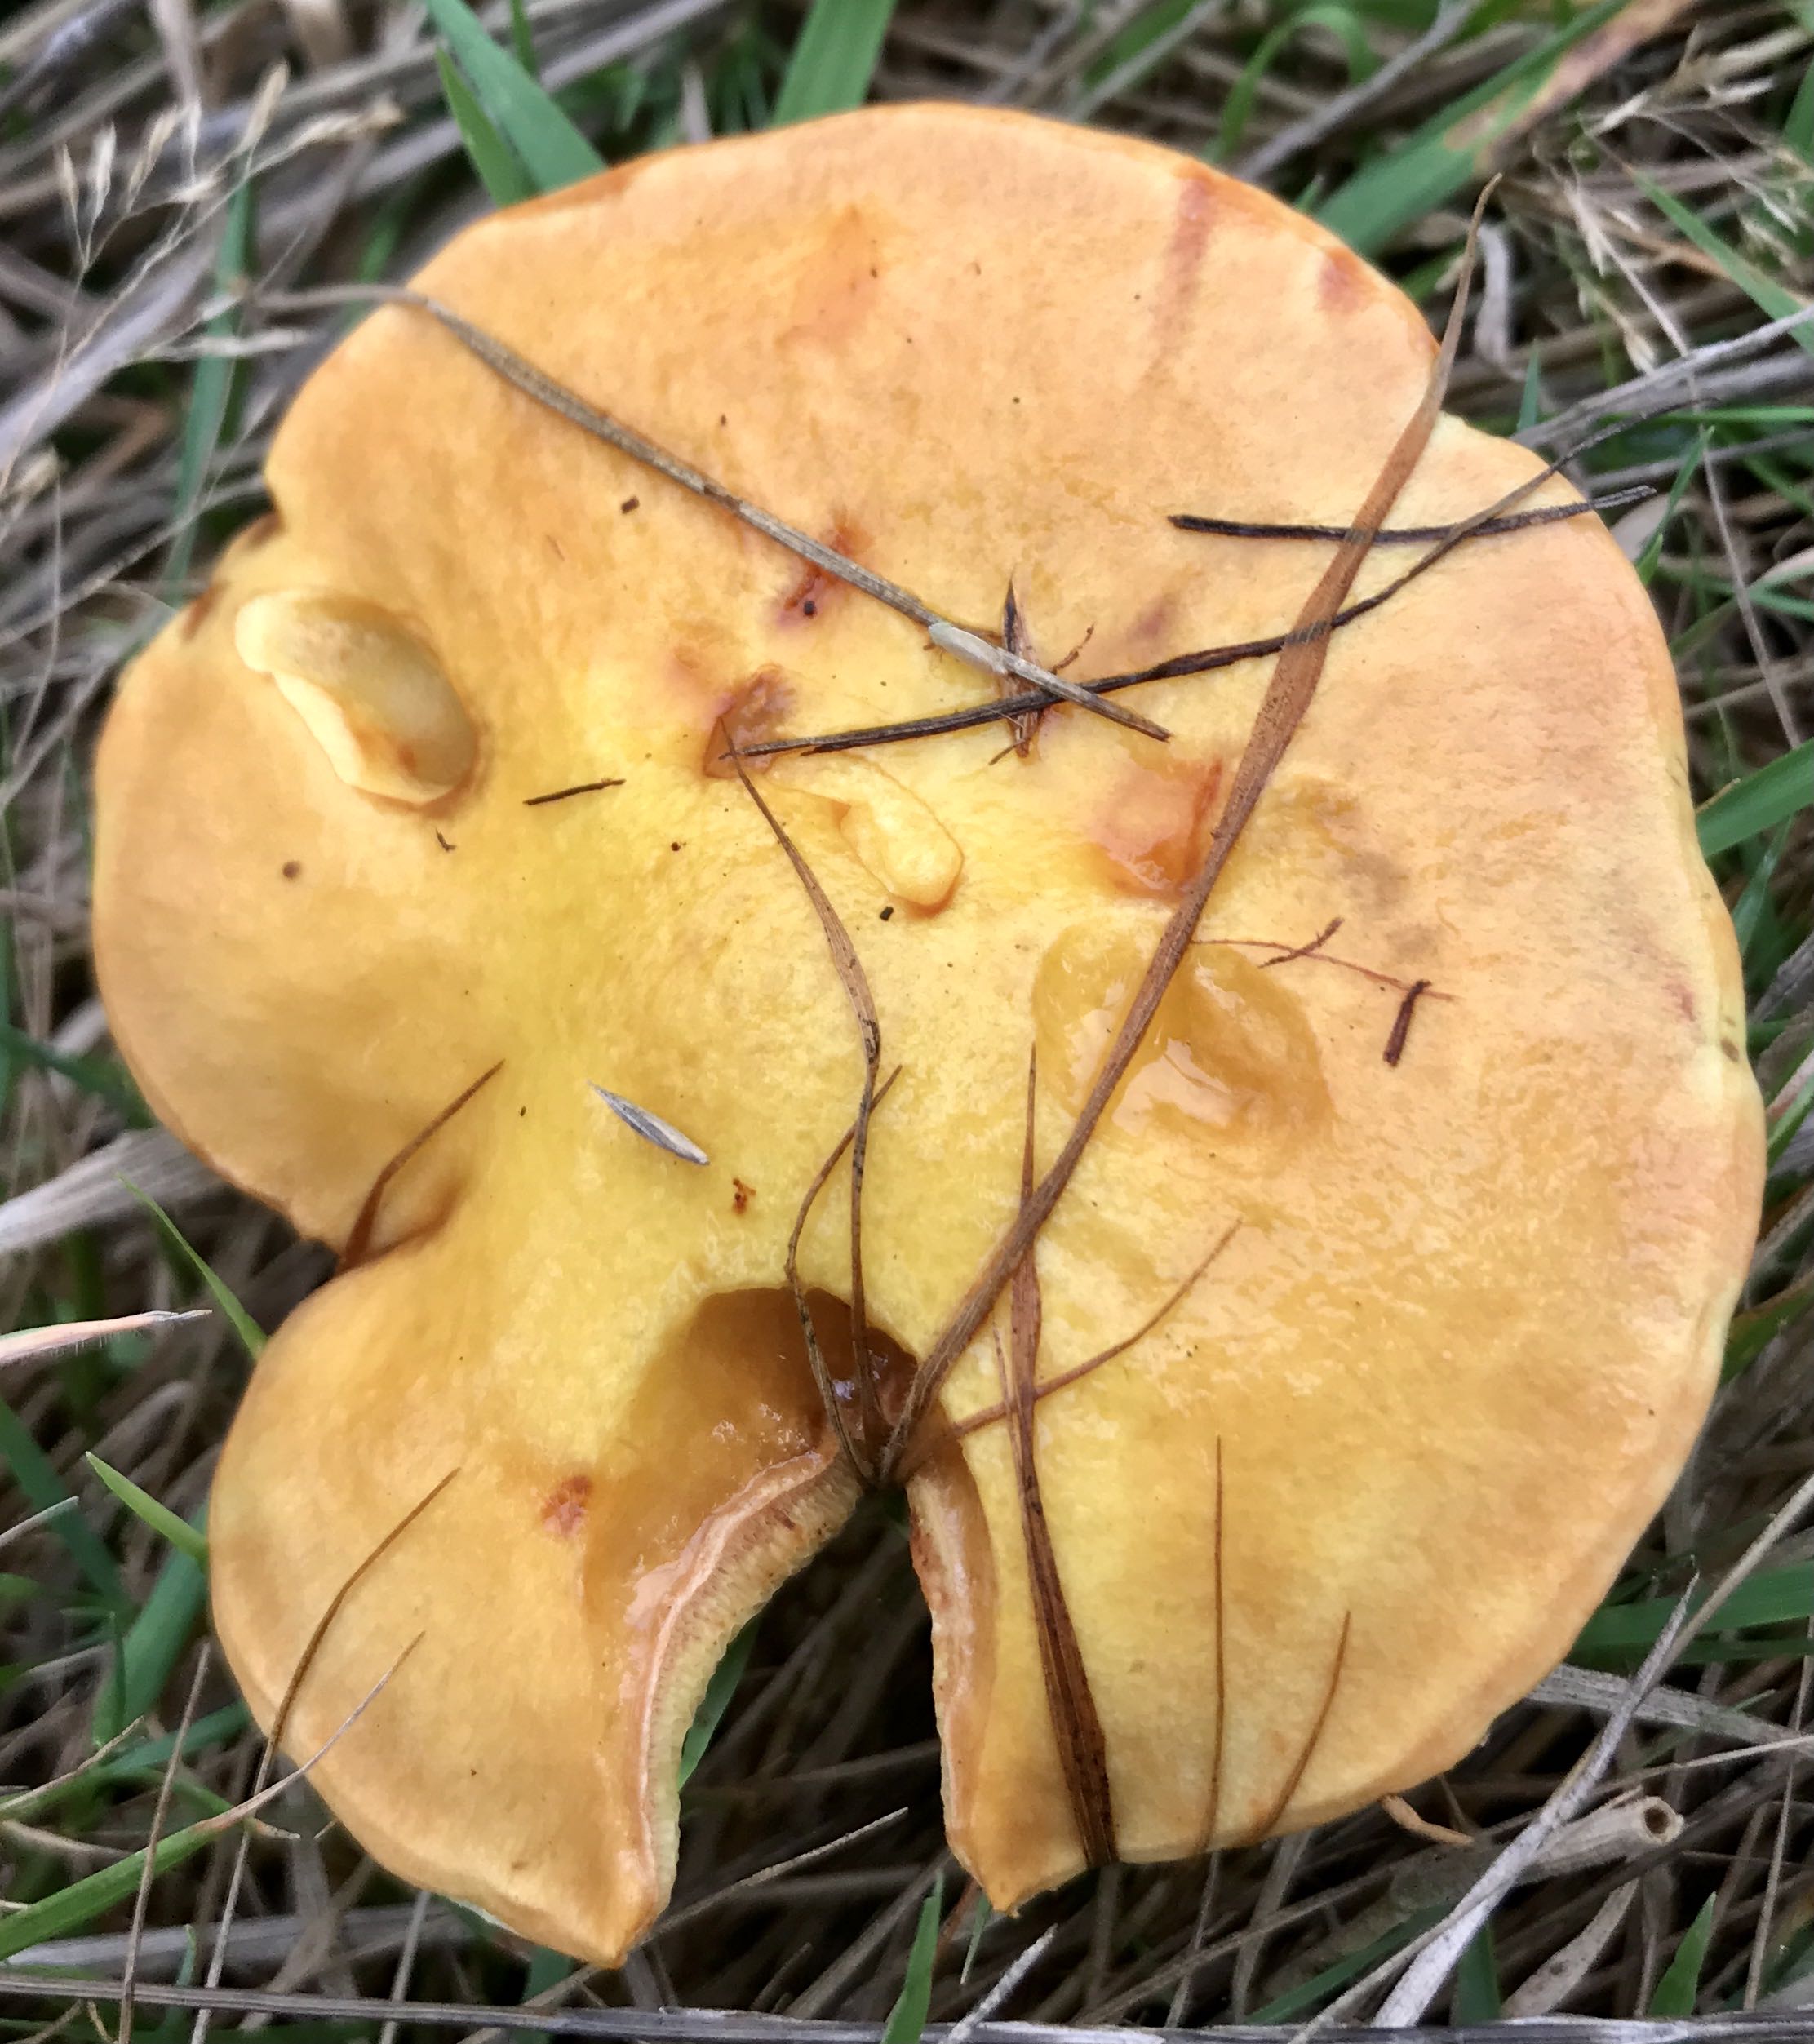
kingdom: Fungi
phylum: Basidiomycota
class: Agaricomycetes
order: Boletales
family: Suillaceae
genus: Suillus
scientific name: Suillus grevillei
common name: lærke-slimrørhat
